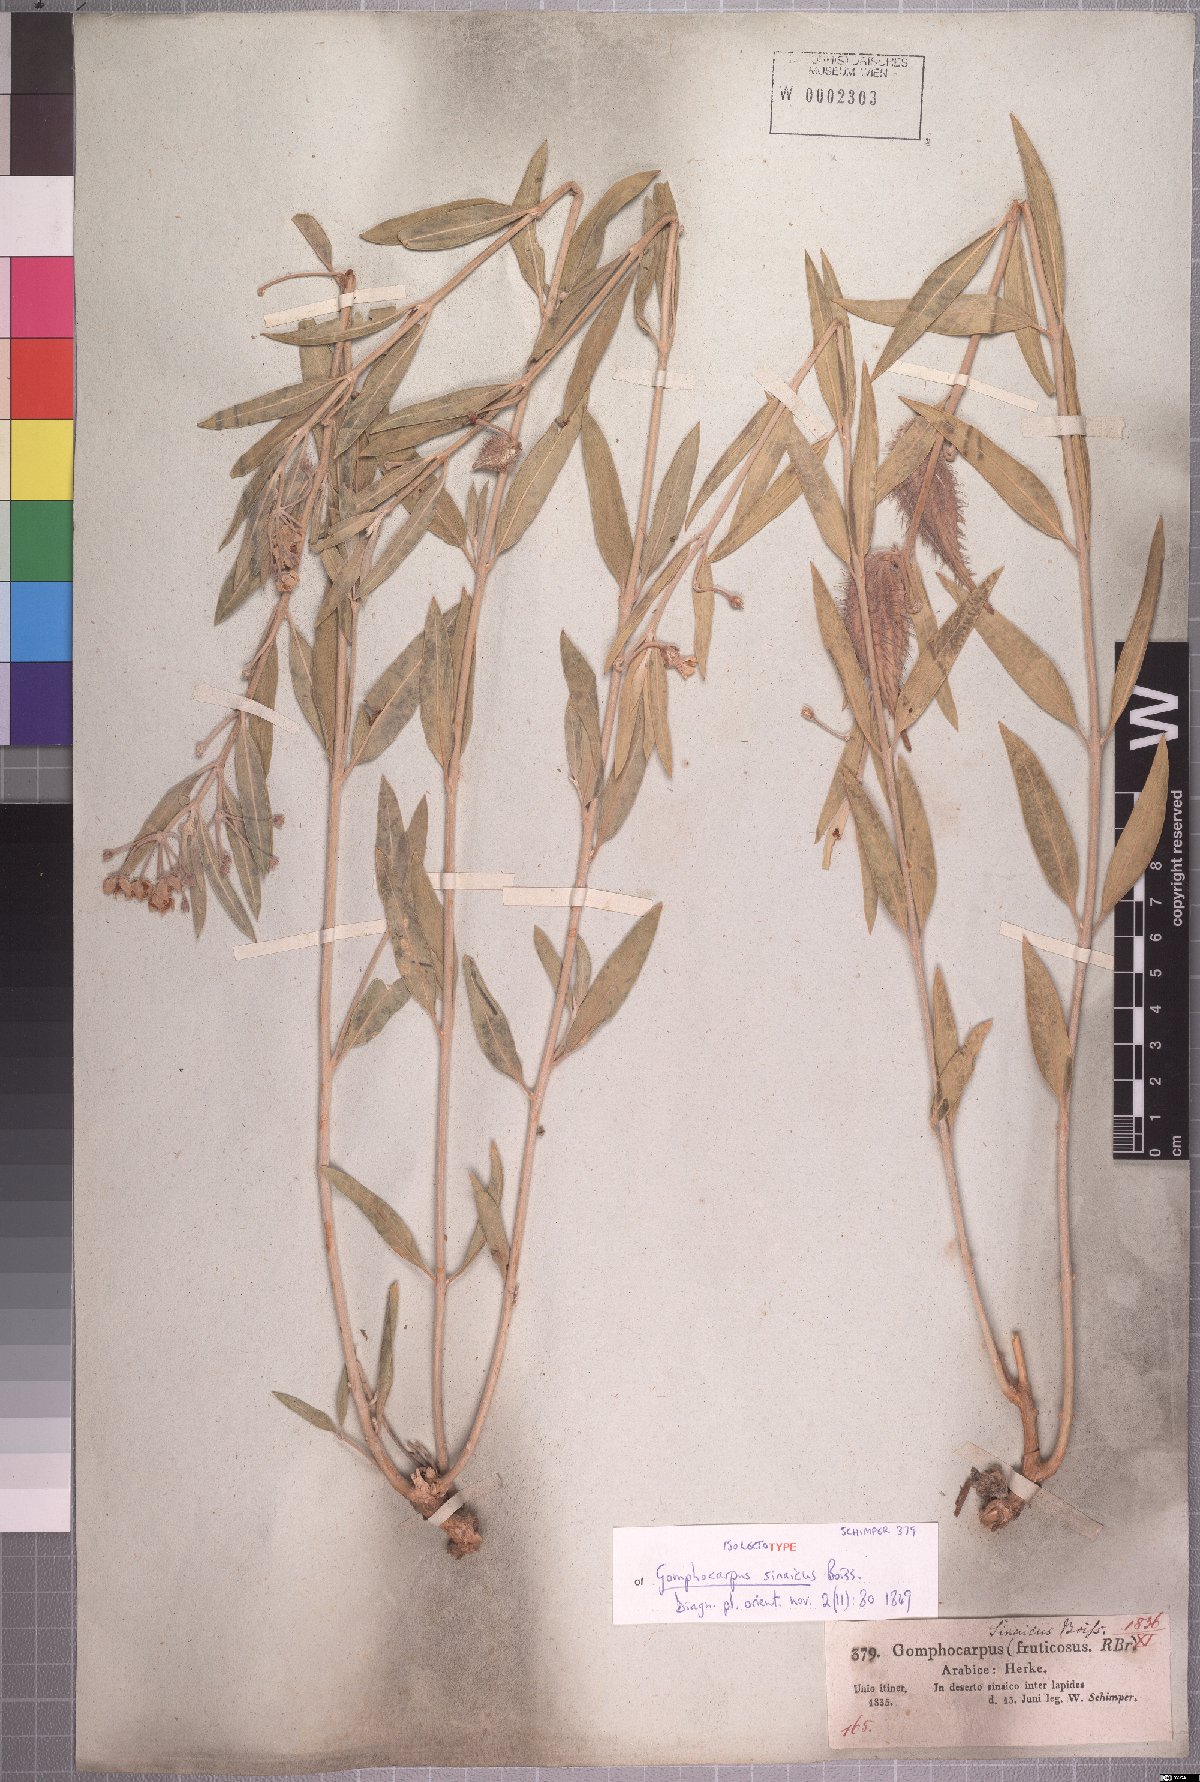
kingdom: Plantae
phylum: Tracheophyta
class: Magnoliopsida
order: Gentianales
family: Apocynaceae
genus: Gomphocarpus
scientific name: Gomphocarpus sinaicus
